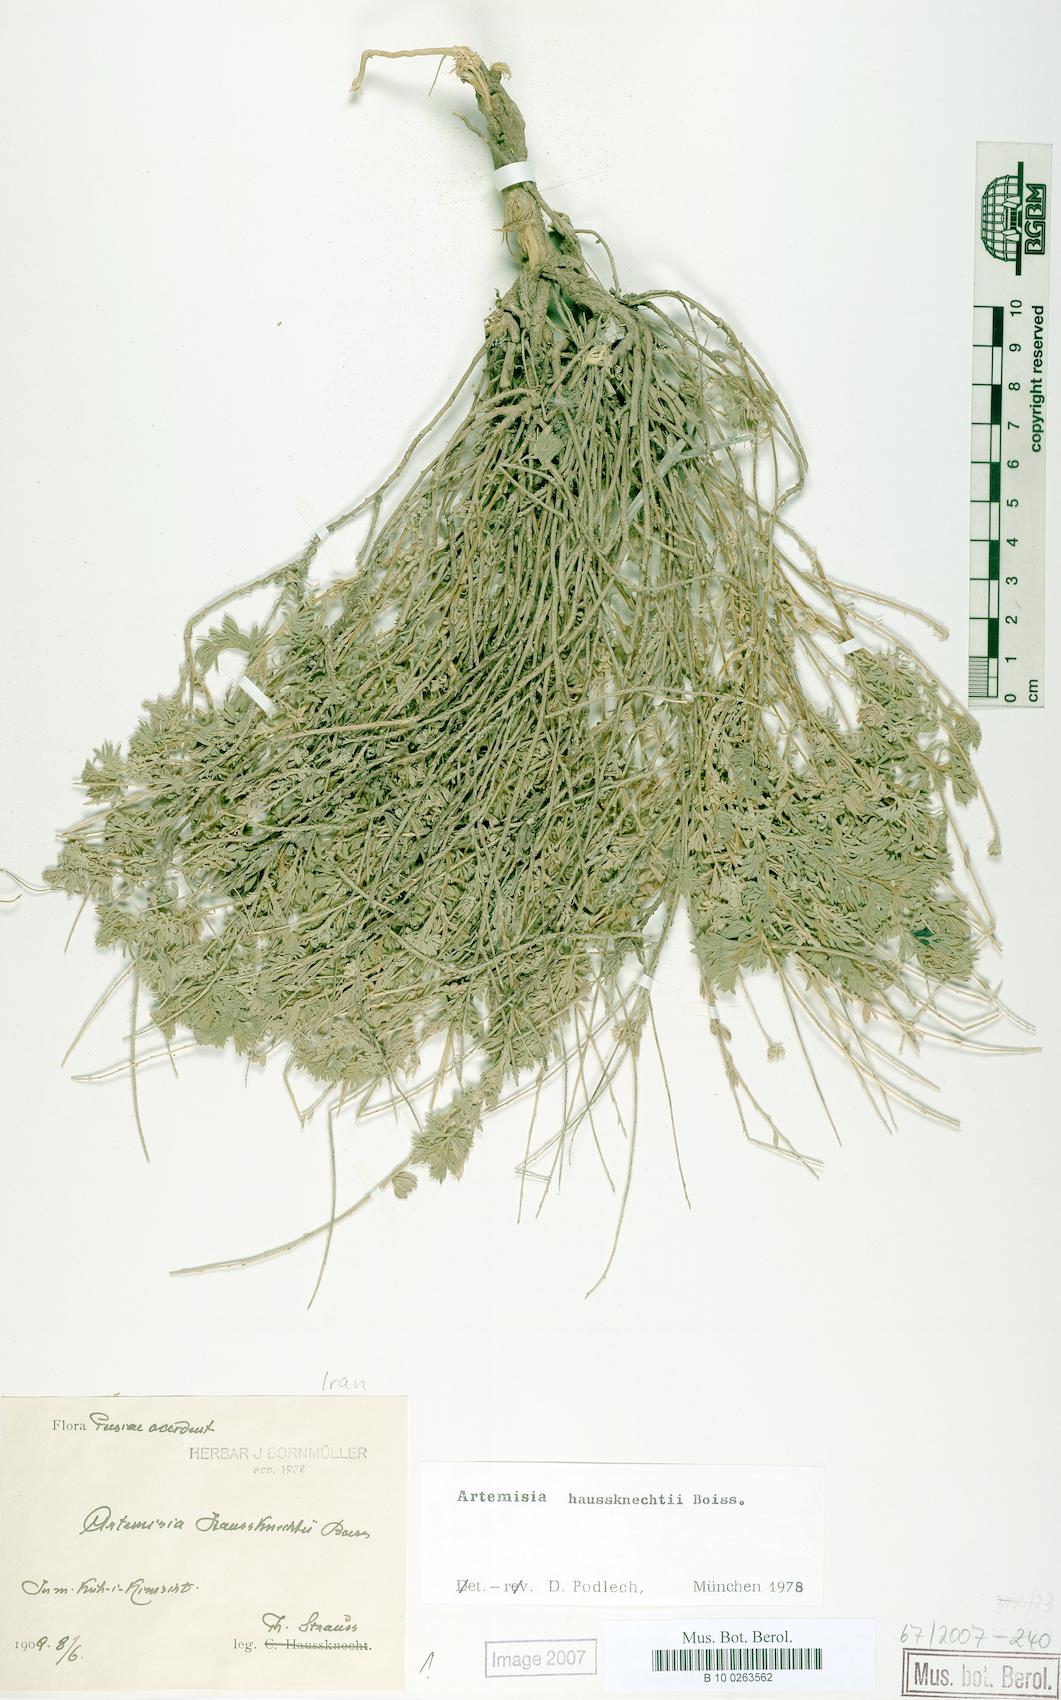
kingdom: Plantae
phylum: Tracheophyta
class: Magnoliopsida
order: Asterales
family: Asteraceae
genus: Artemisia
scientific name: Artemisia haussknechtii
